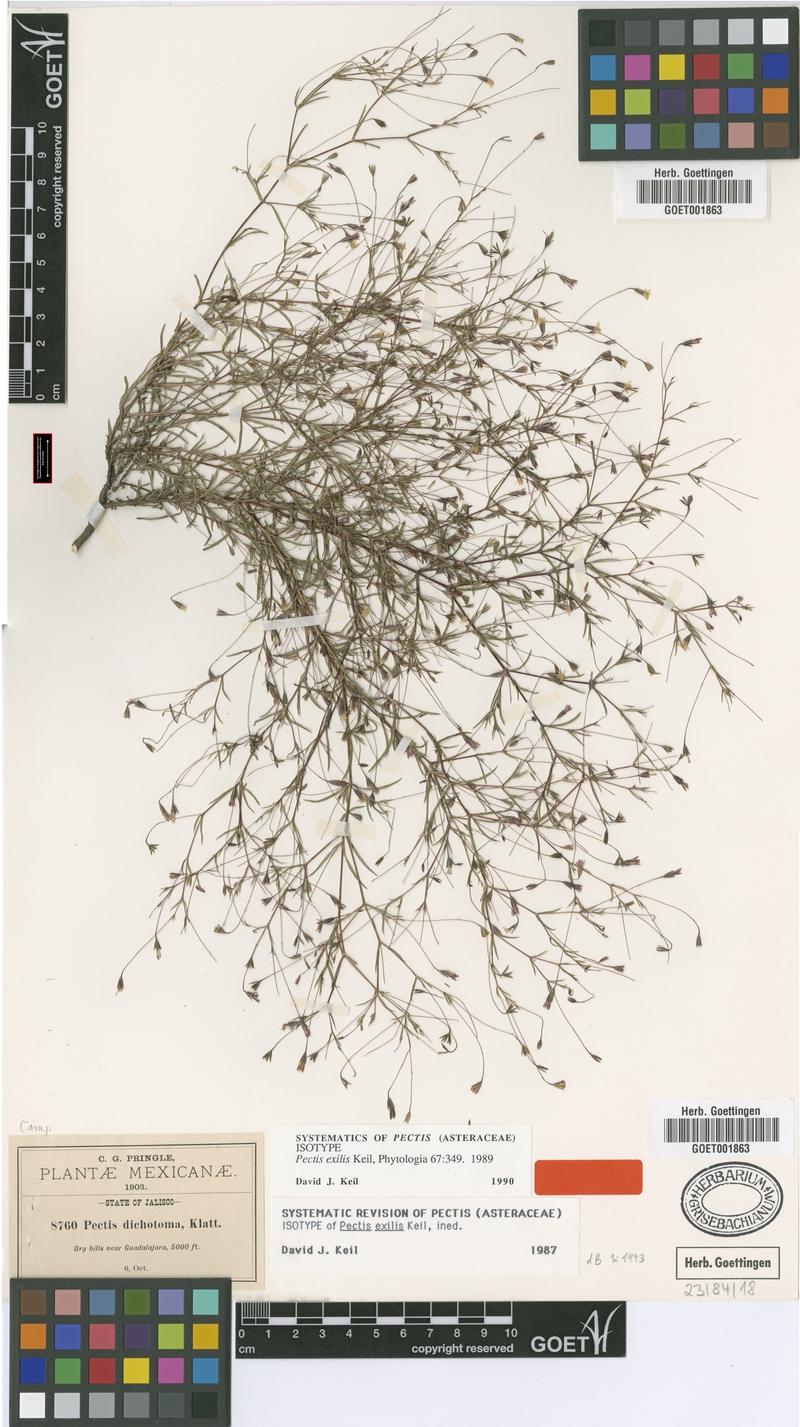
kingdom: Plantae
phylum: Tracheophyta
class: Magnoliopsida
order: Asterales
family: Asteraceae
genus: Pectis
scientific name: Pectis exilis
